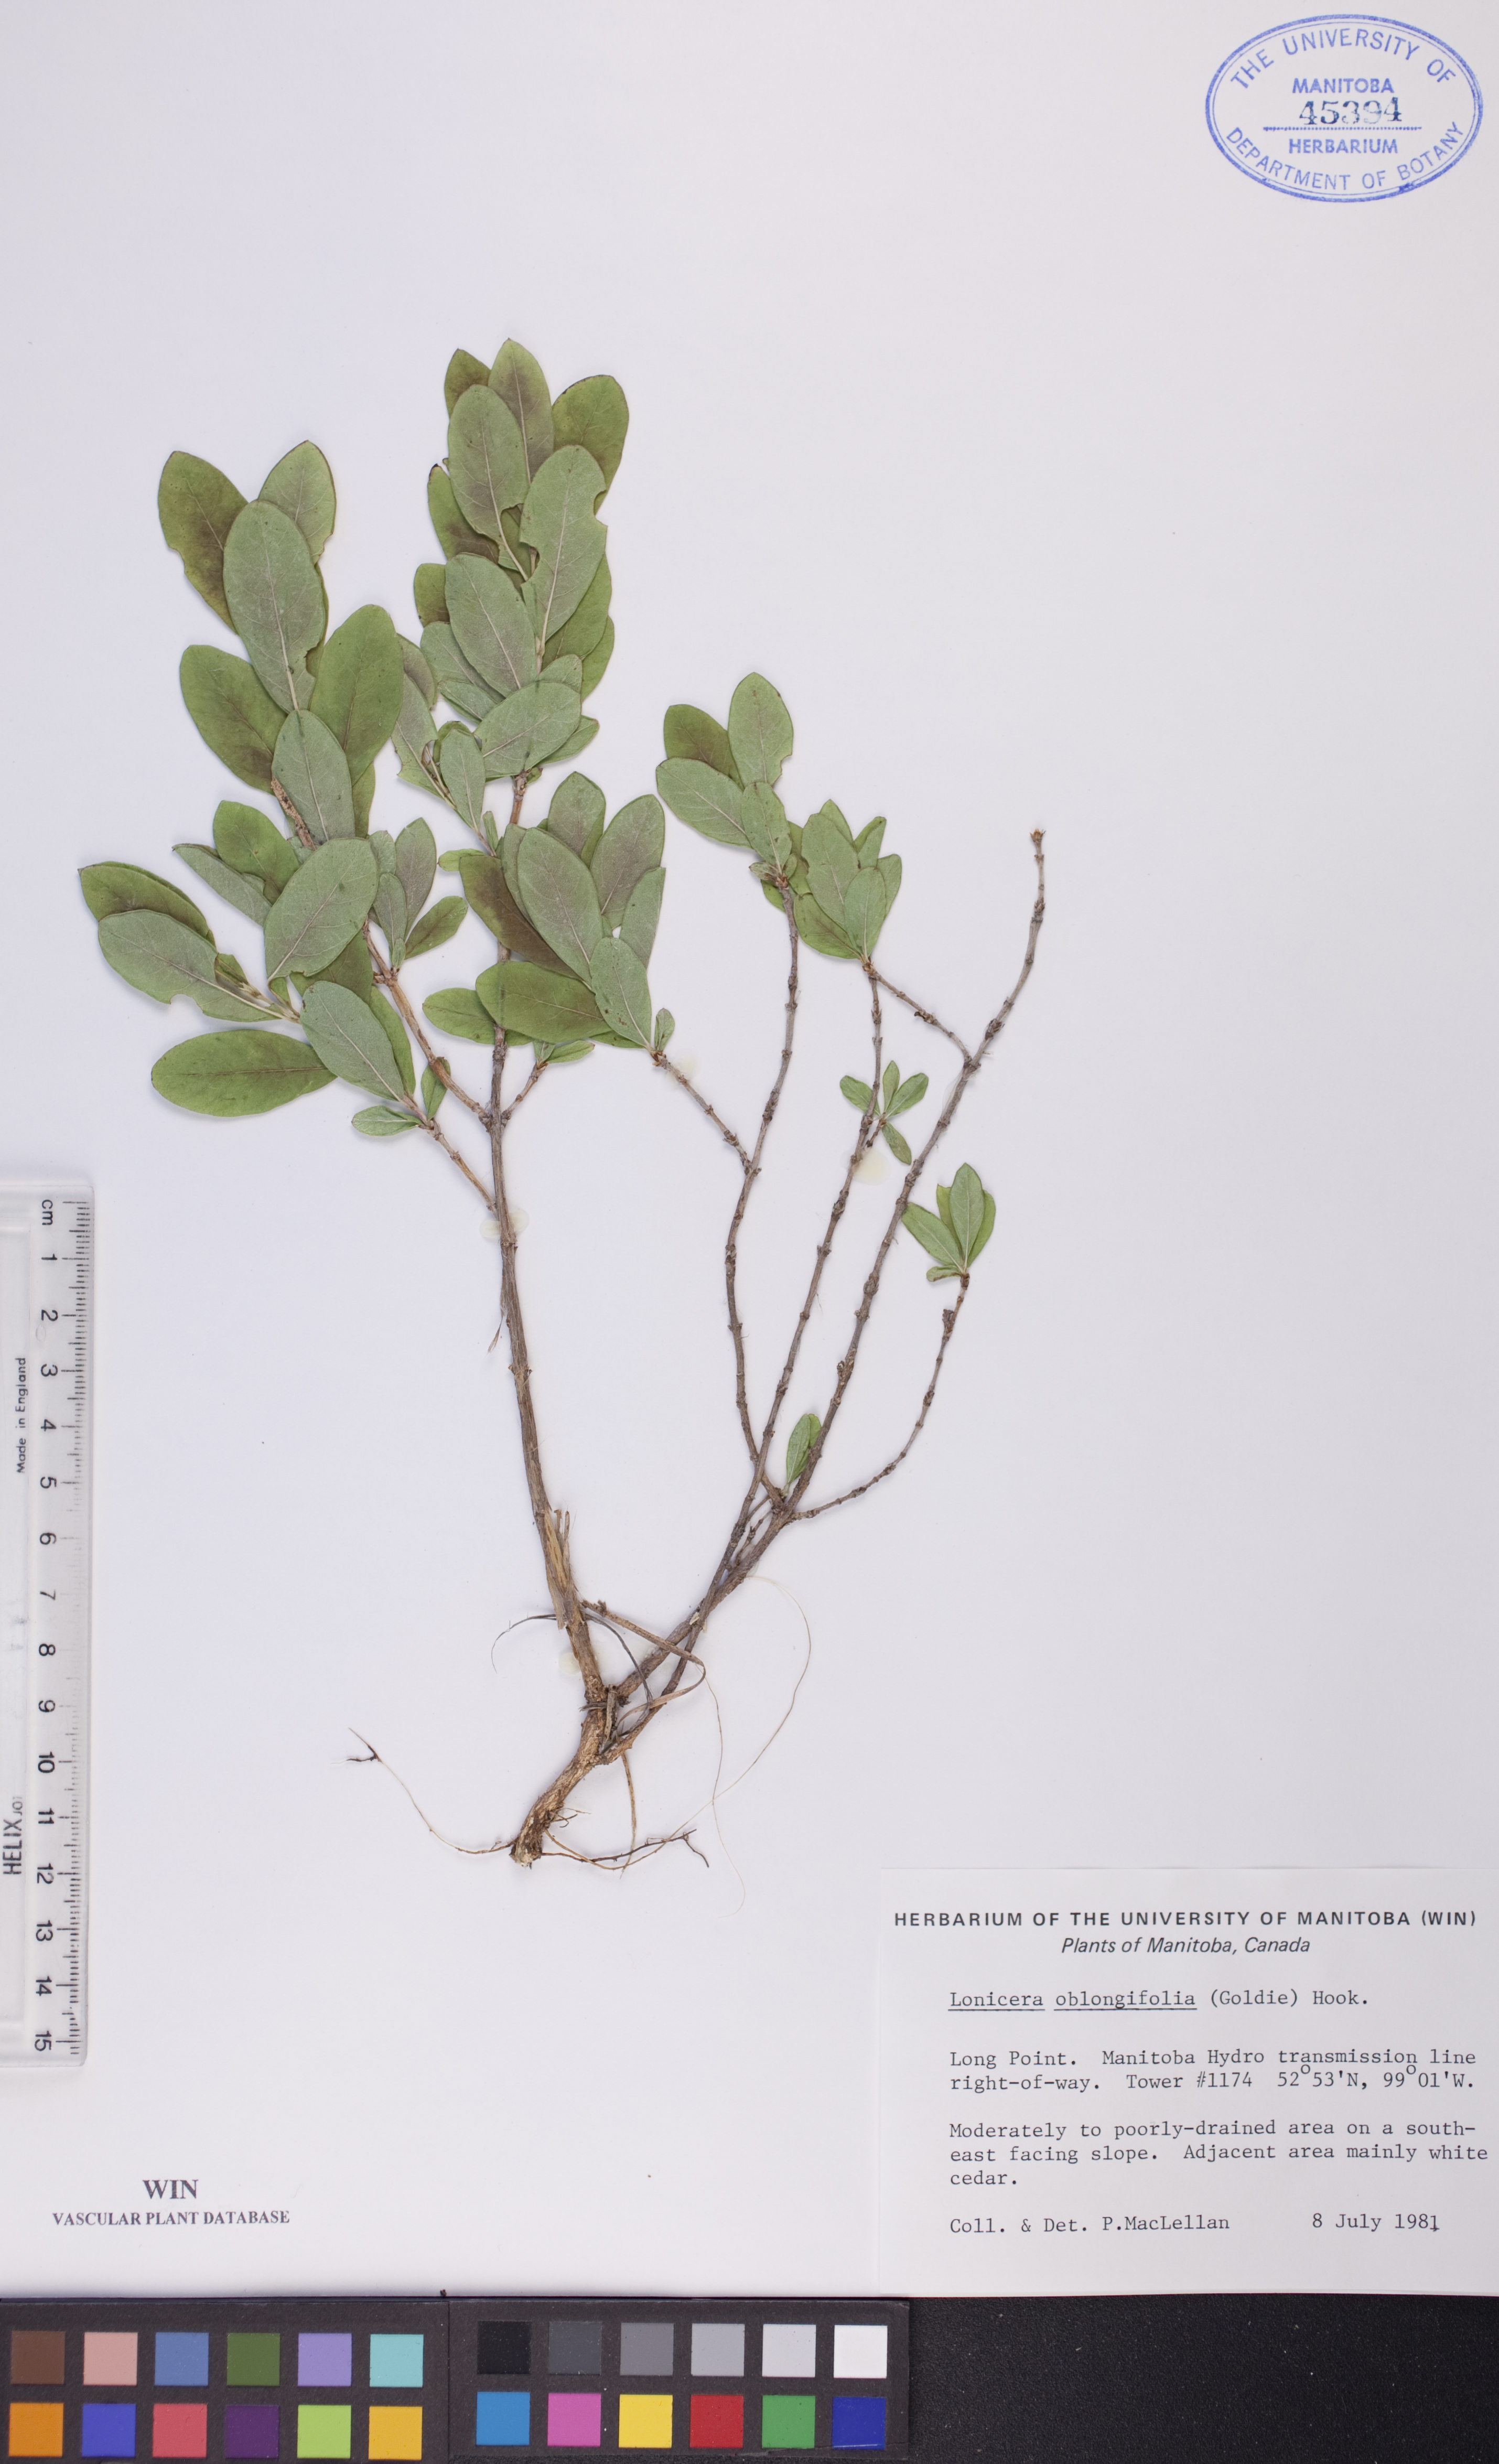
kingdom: Plantae
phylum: Tracheophyta
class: Magnoliopsida
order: Dipsacales
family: Caprifoliaceae
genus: Lonicera
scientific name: Lonicera oblongifolia
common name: Swamp fly honeysuckle
